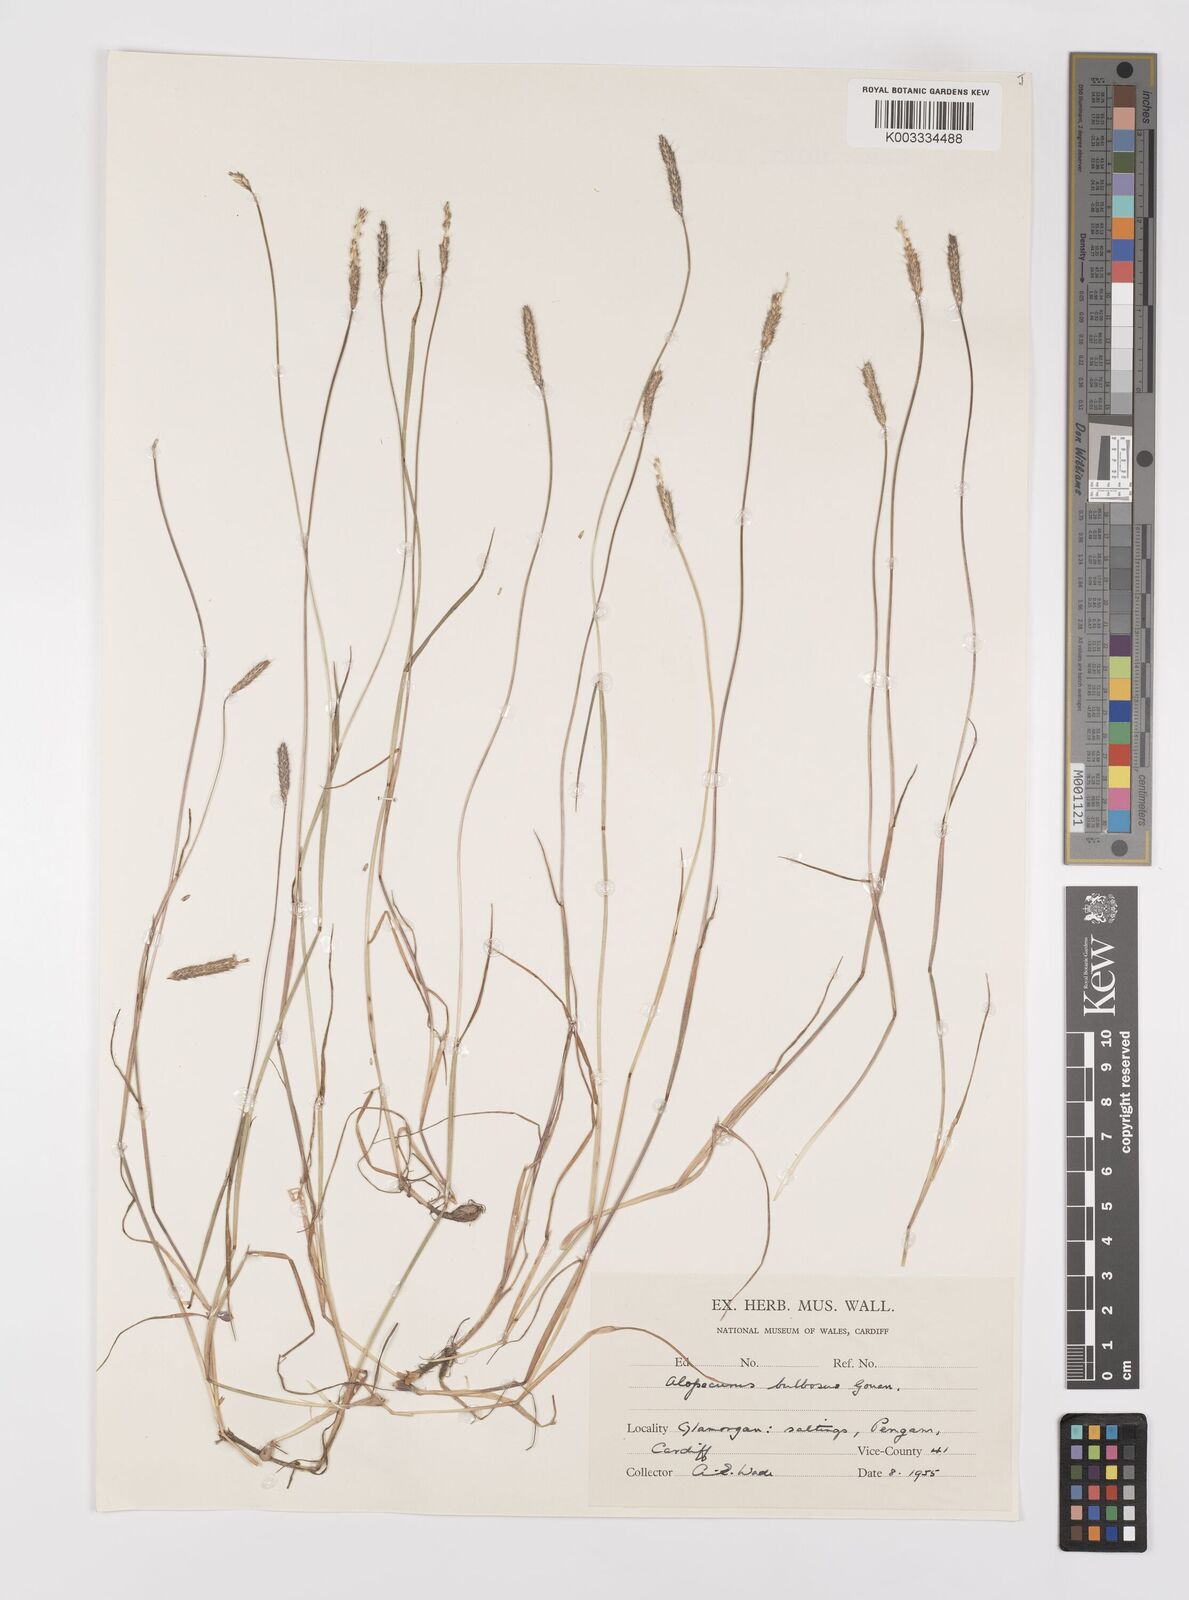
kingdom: Plantae
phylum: Tracheophyta
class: Liliopsida
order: Poales
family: Poaceae
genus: Alopecurus
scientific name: Alopecurus bulbosus
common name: Bulbous foxtail
